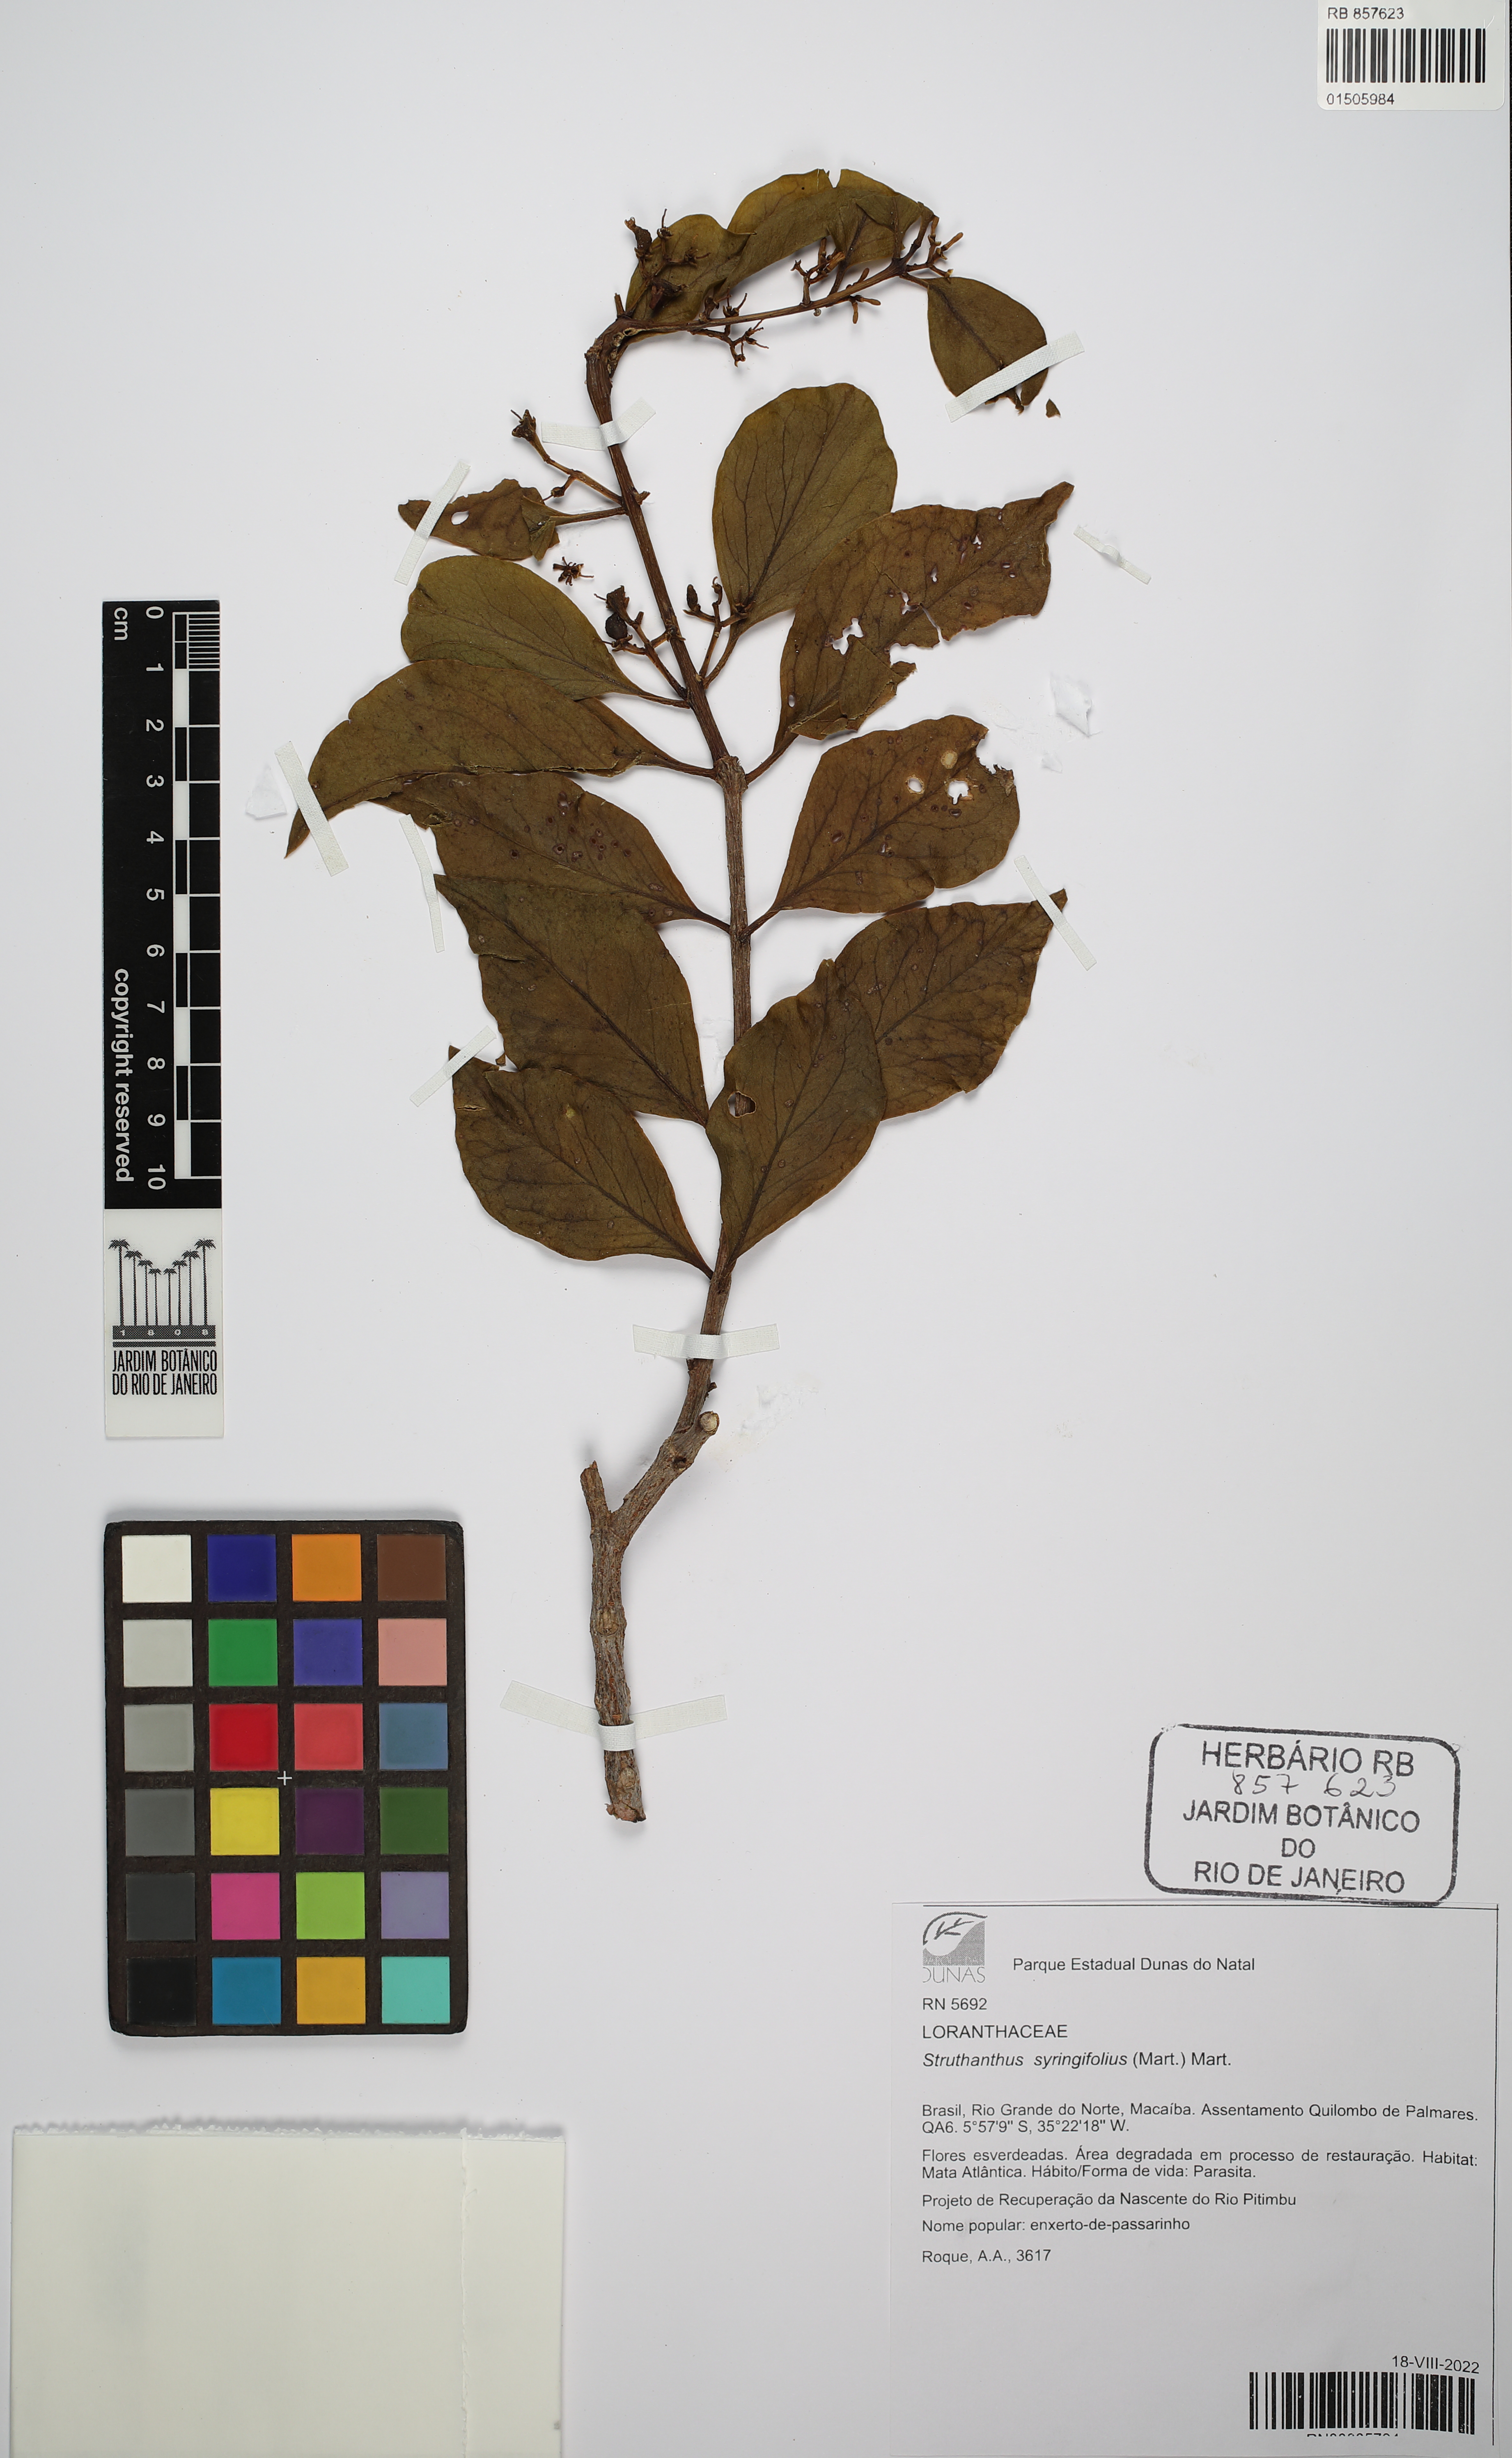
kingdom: Plantae
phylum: Tracheophyta
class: Magnoliopsida
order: Santalales
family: Loranthaceae
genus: Struthanthus
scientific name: Struthanthus syringifolius
